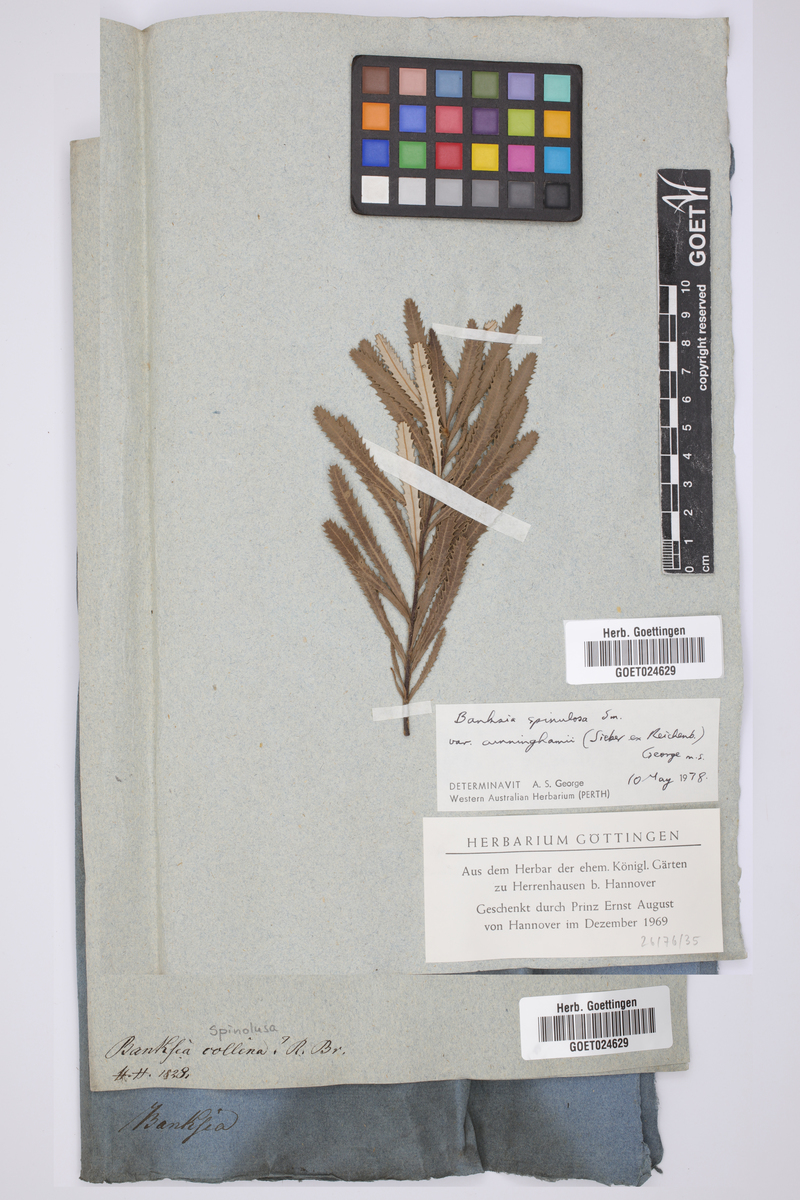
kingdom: Plantae
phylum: Tracheophyta
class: Magnoliopsida
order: Proteales
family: Proteaceae
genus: Banksia
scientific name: Banksia spinulosa
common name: Hairpin banksia
